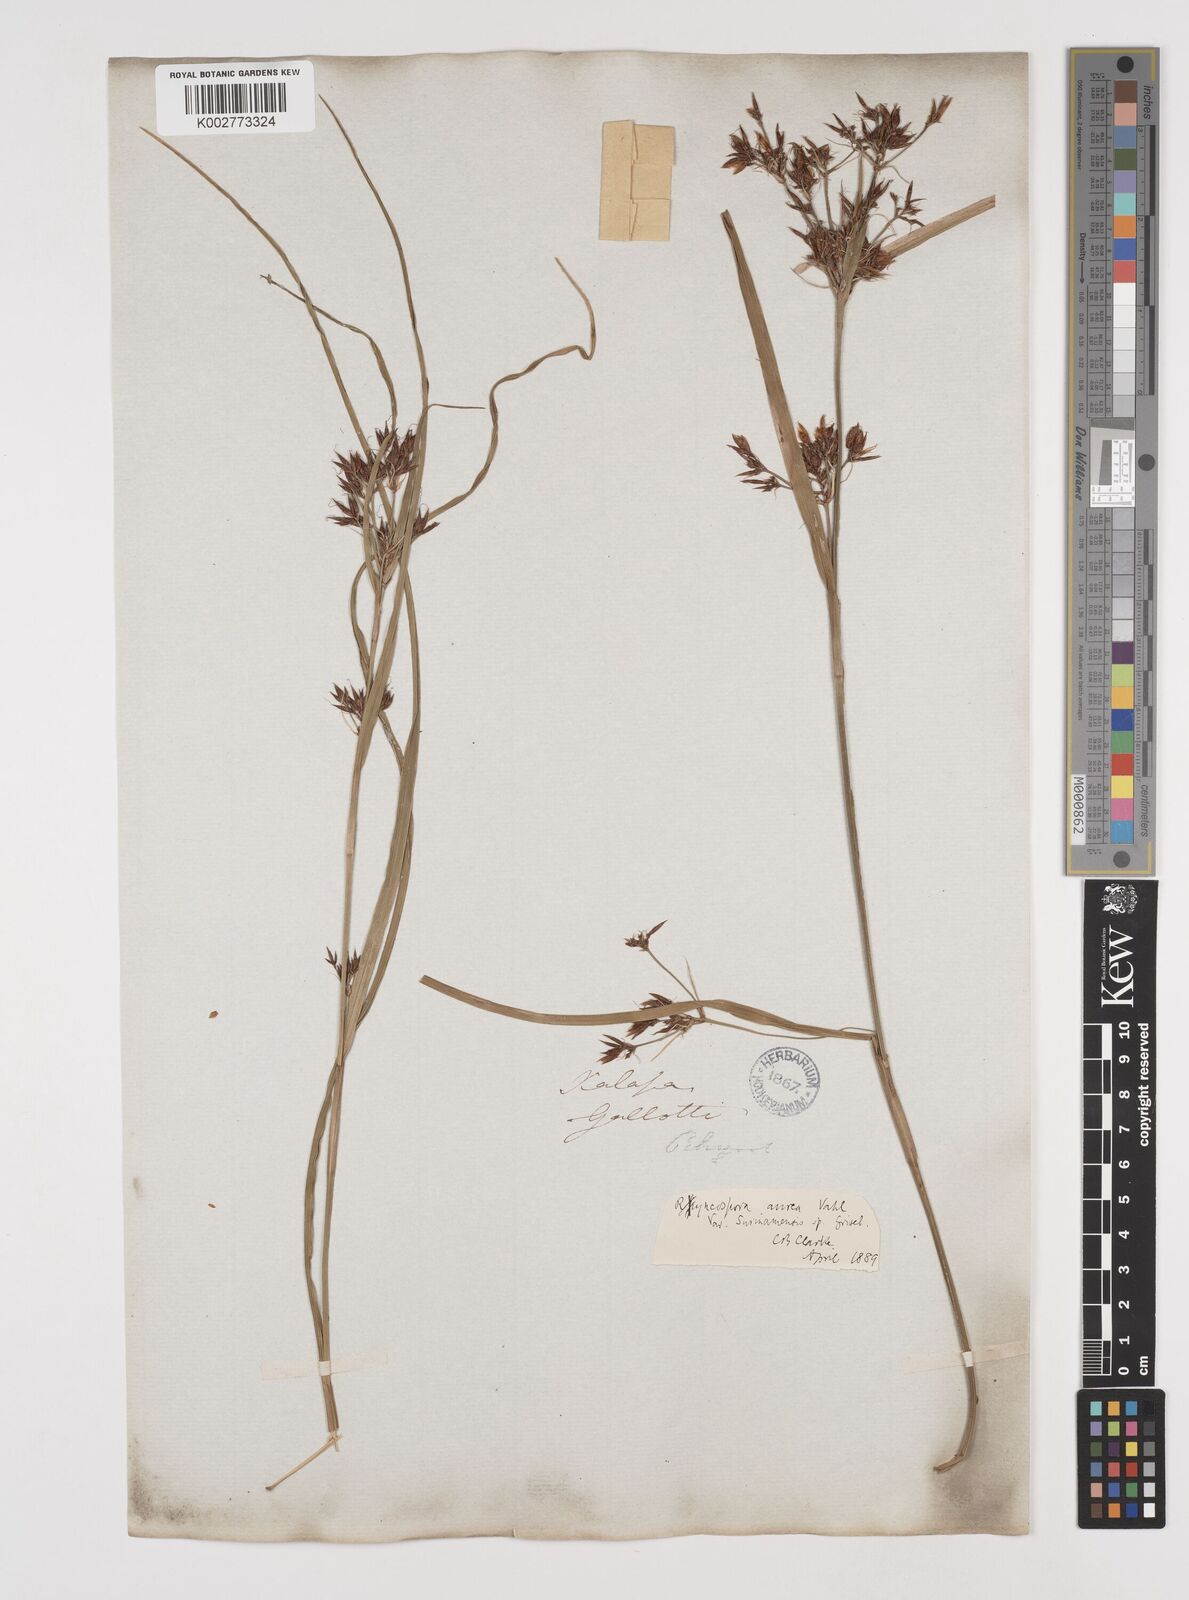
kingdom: Plantae
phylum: Tracheophyta
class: Liliopsida
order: Poales
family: Cyperaceae
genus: Rhynchospora
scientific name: Rhynchospora corymbosa
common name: Golden beak sedge
